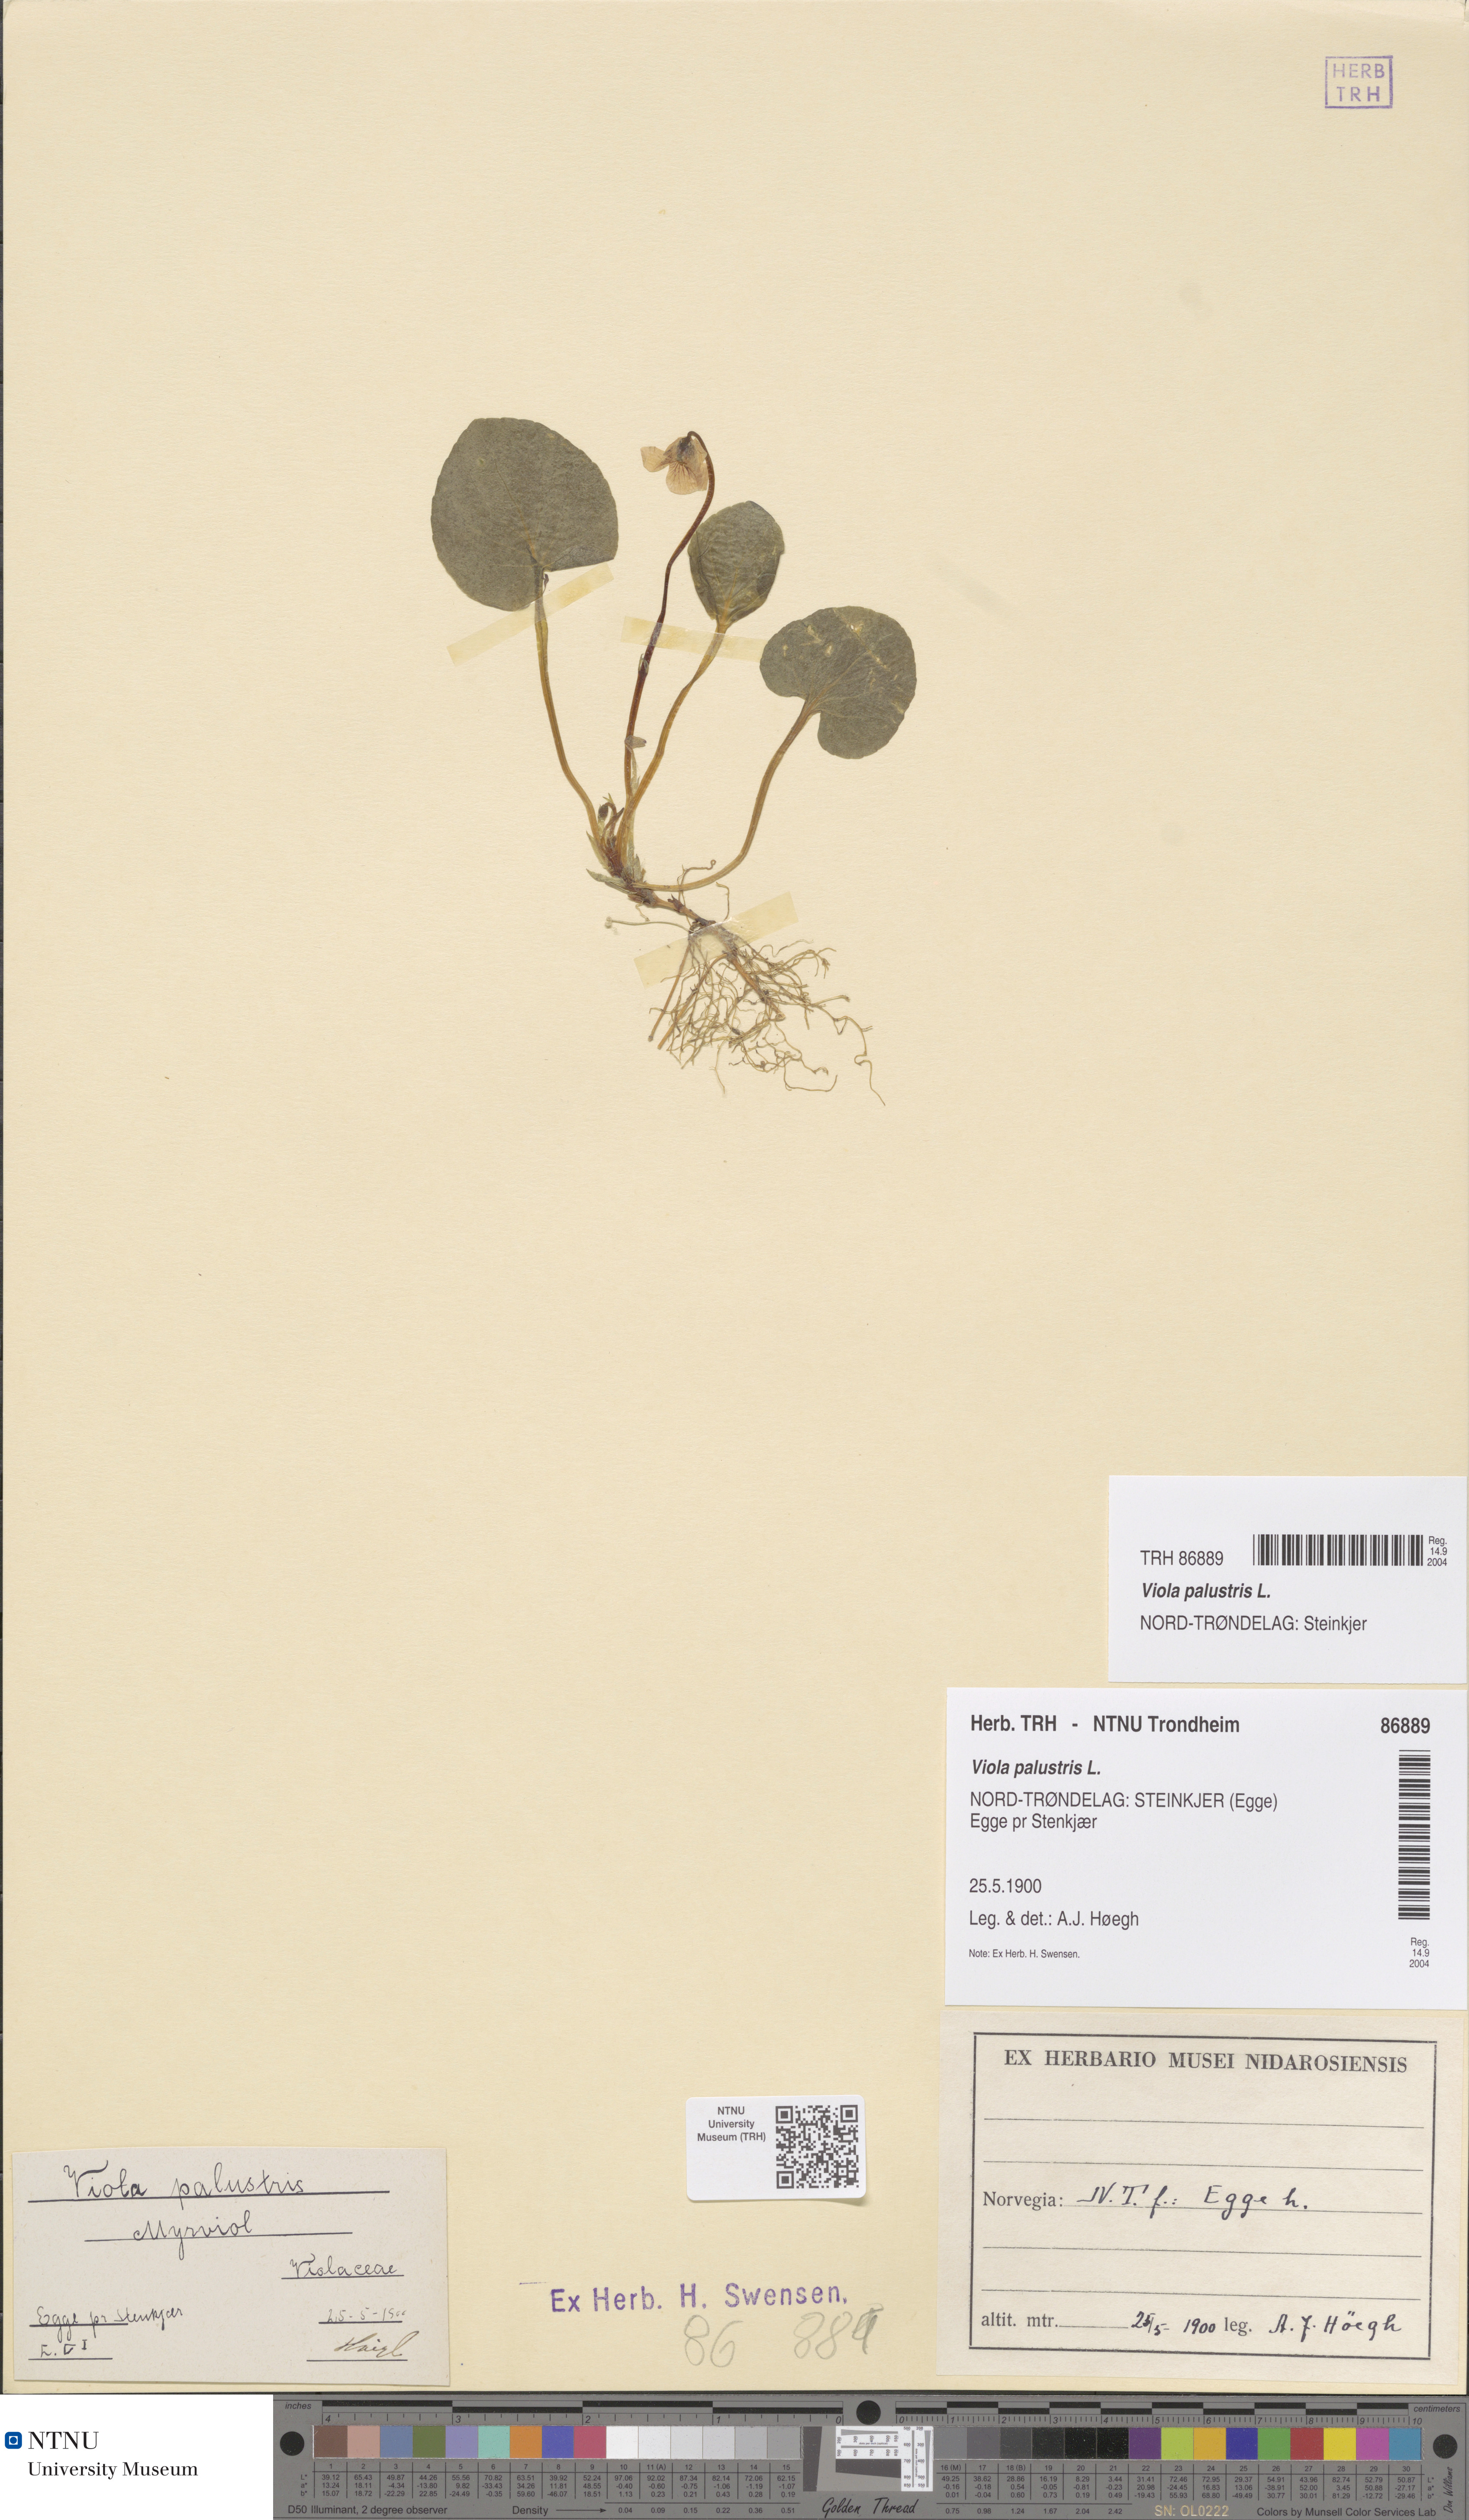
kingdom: Plantae
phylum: Tracheophyta
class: Magnoliopsida
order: Malpighiales
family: Violaceae
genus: Viola
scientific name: Viola palustris
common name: Marsh violet
